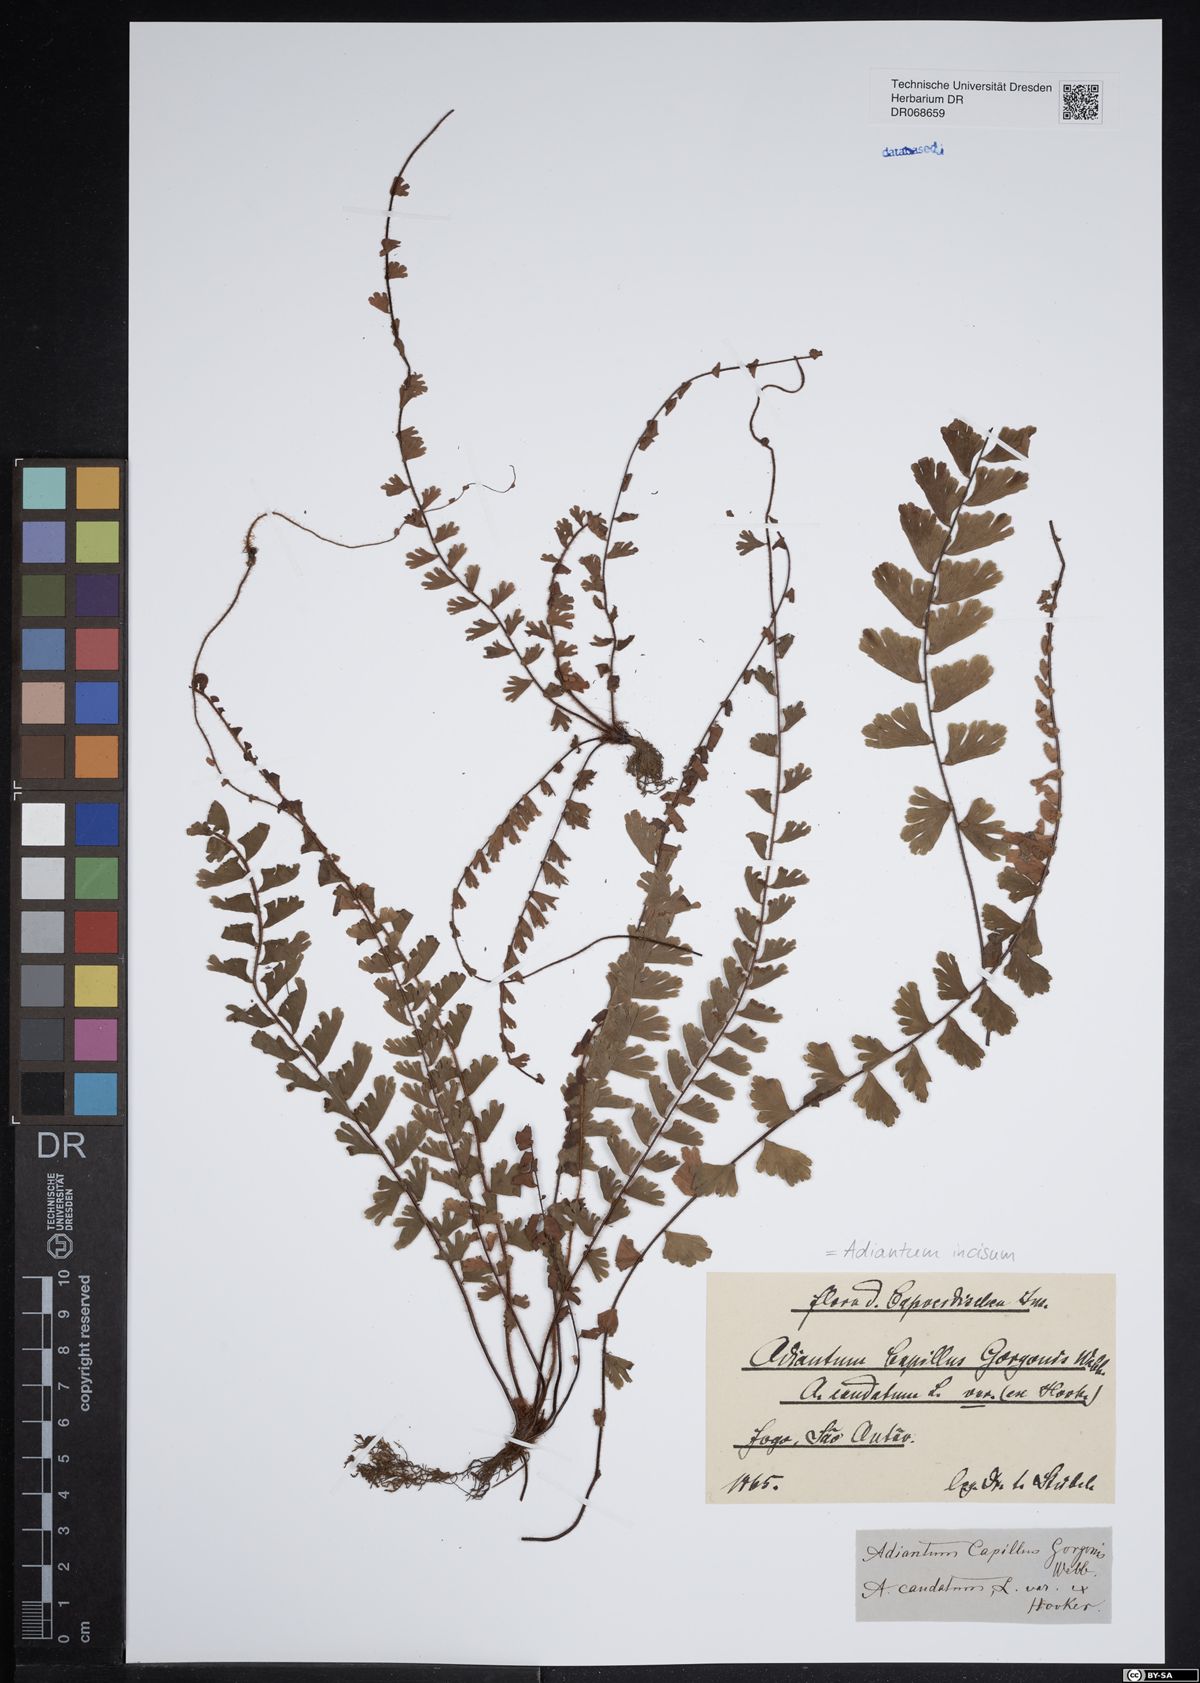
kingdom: Plantae
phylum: Tracheophyta
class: Polypodiopsida
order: Polypodiales
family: Pteridaceae
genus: Adiantum
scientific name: Adiantum incisum
